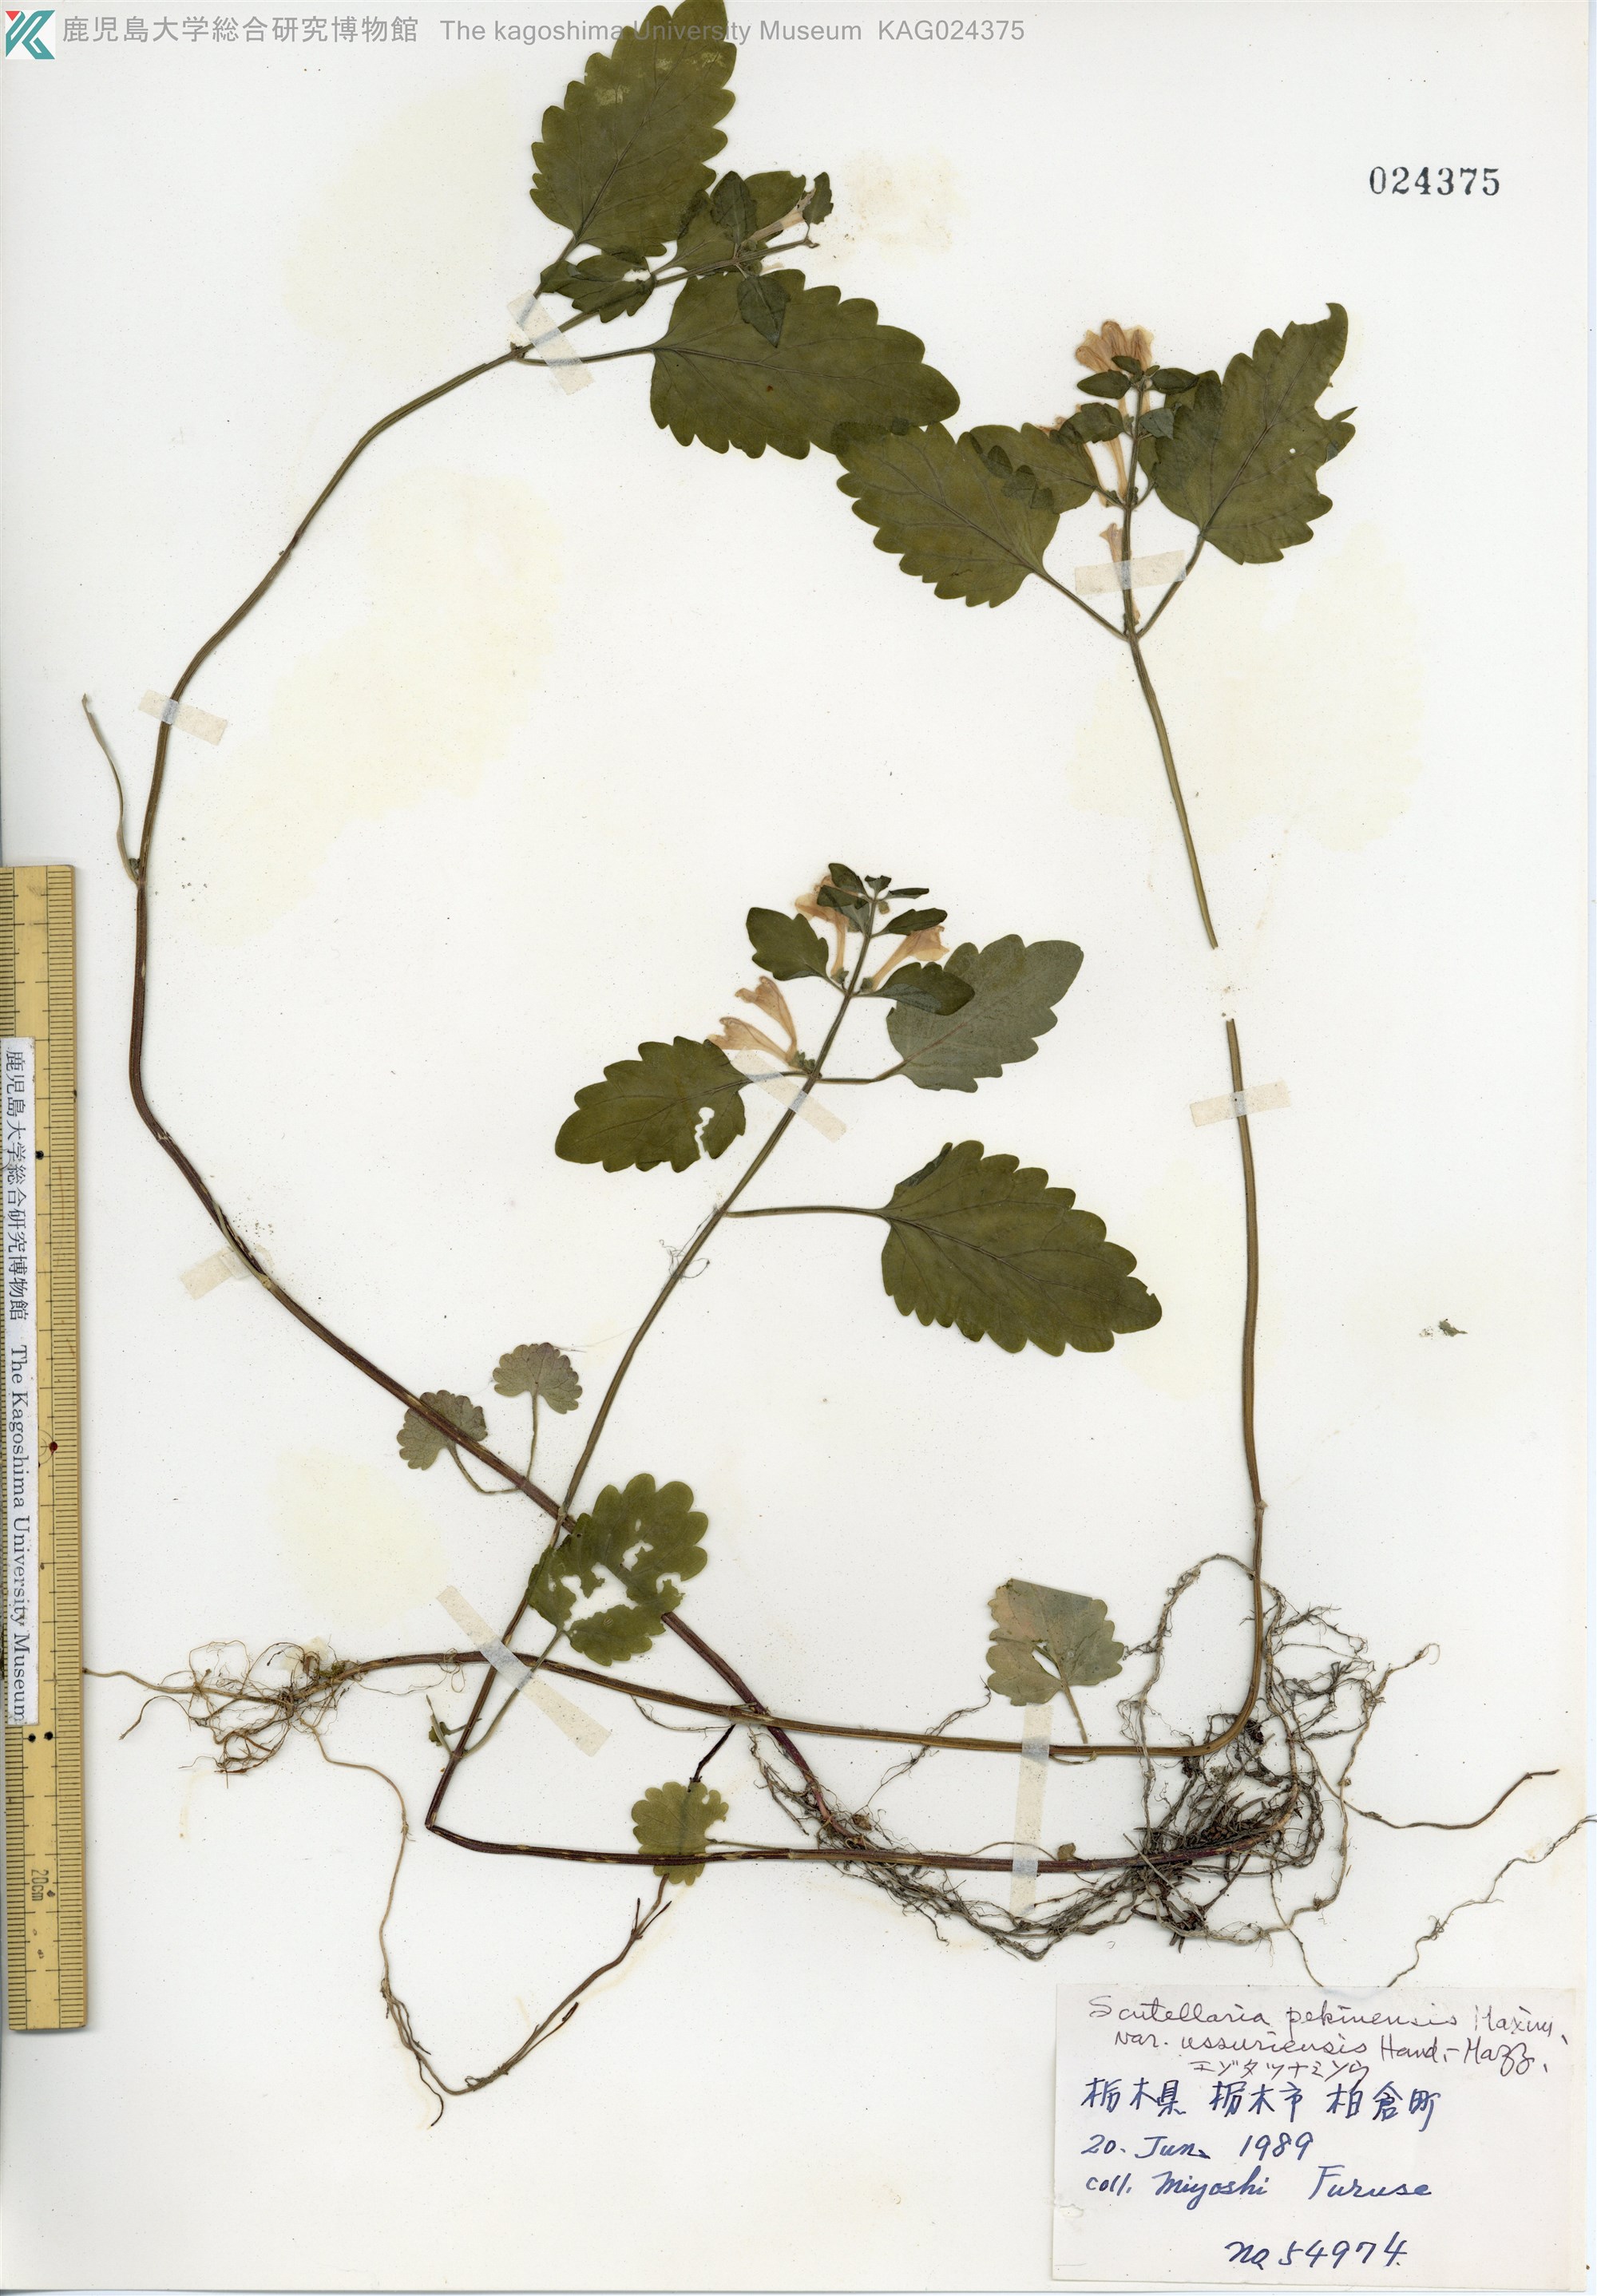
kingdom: Plantae
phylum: Tracheophyta
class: Magnoliopsida
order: Lamiales
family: Lamiaceae
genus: Scutellaria
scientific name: Scutellaria pekinensis
